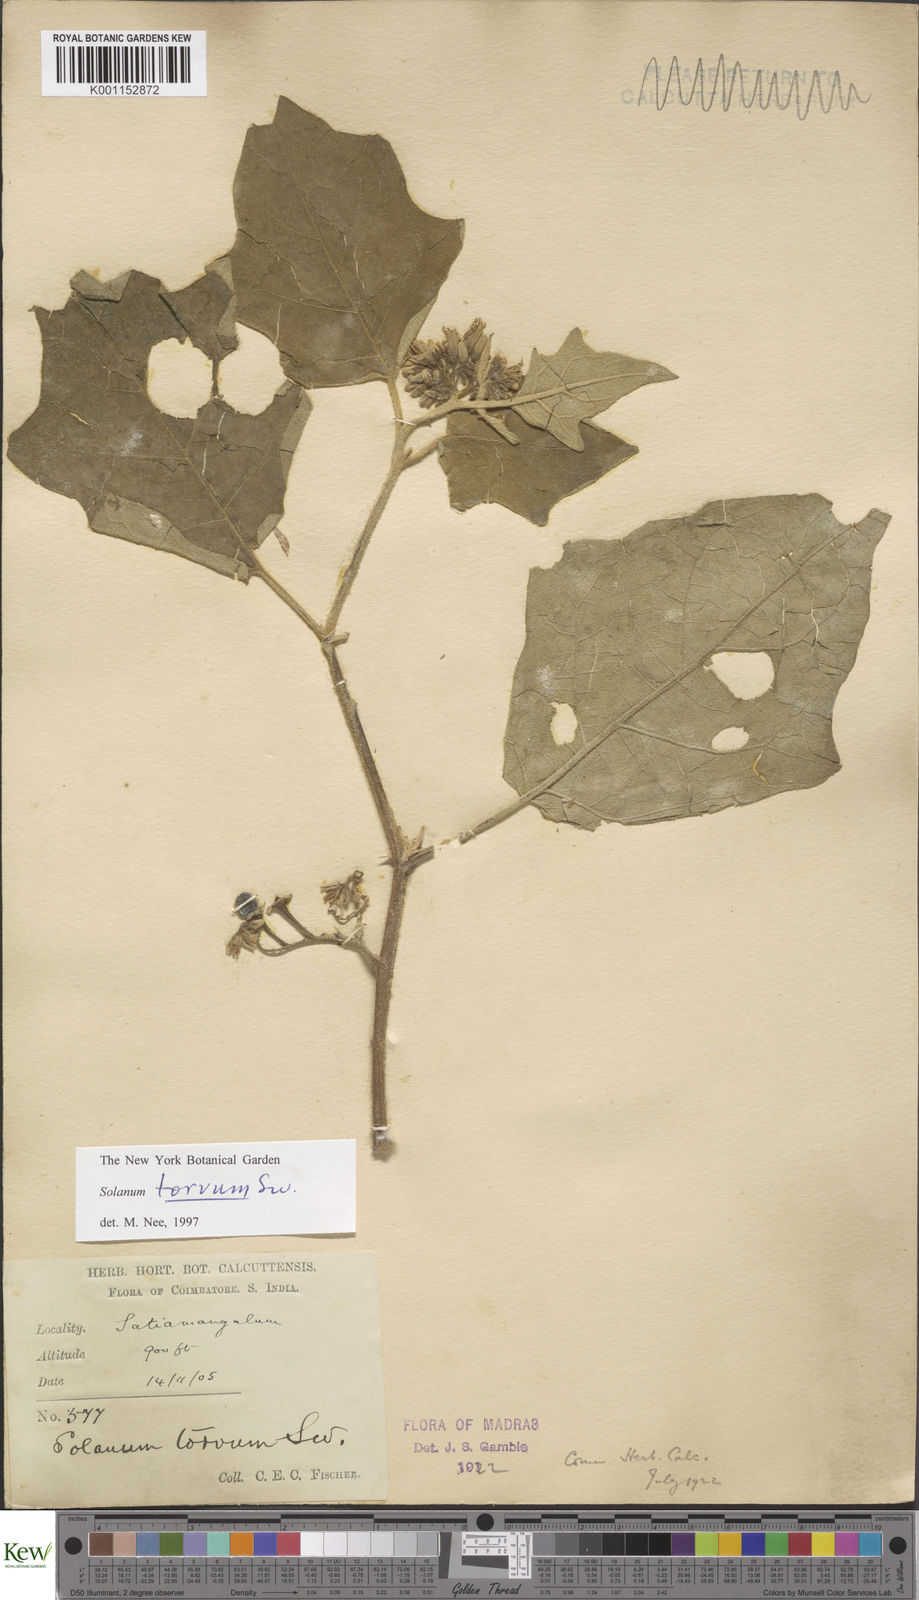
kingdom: Plantae
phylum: Tracheophyta
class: Magnoliopsida
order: Solanales
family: Solanaceae
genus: Solanum
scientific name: Solanum torvum
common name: Turkey berry
